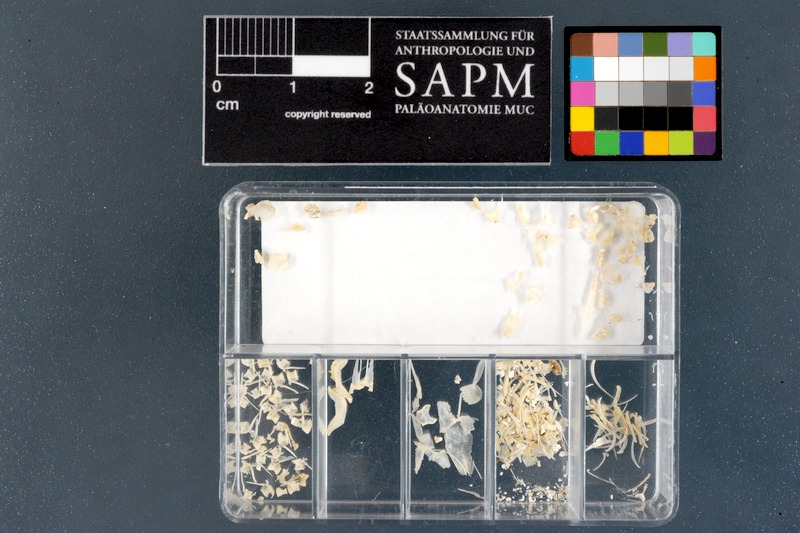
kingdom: Animalia
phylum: Chordata
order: Cypriniformes
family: Nemacheilidae
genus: Barbatula
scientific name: Barbatula barbatula
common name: Stone loach
